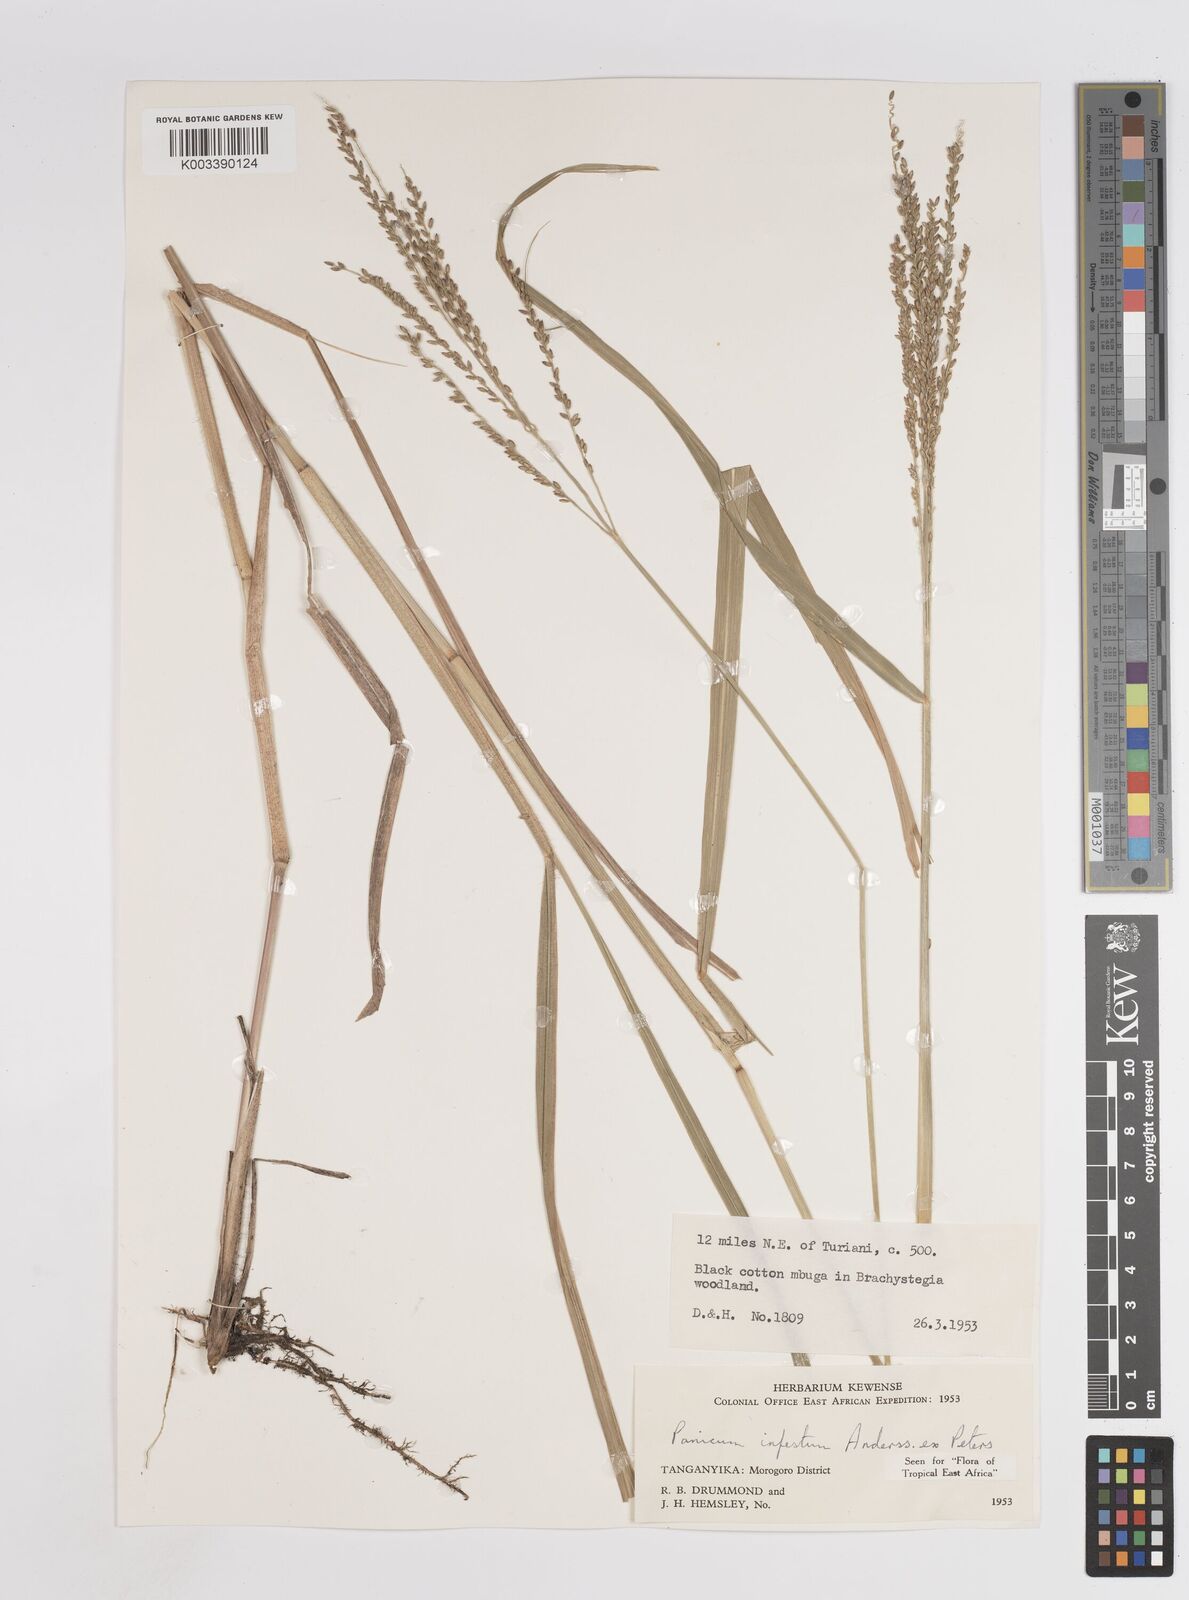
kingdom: Plantae
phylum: Tracheophyta
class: Liliopsida
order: Poales
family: Poaceae
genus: Megathyrsus
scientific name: Megathyrsus infestus
